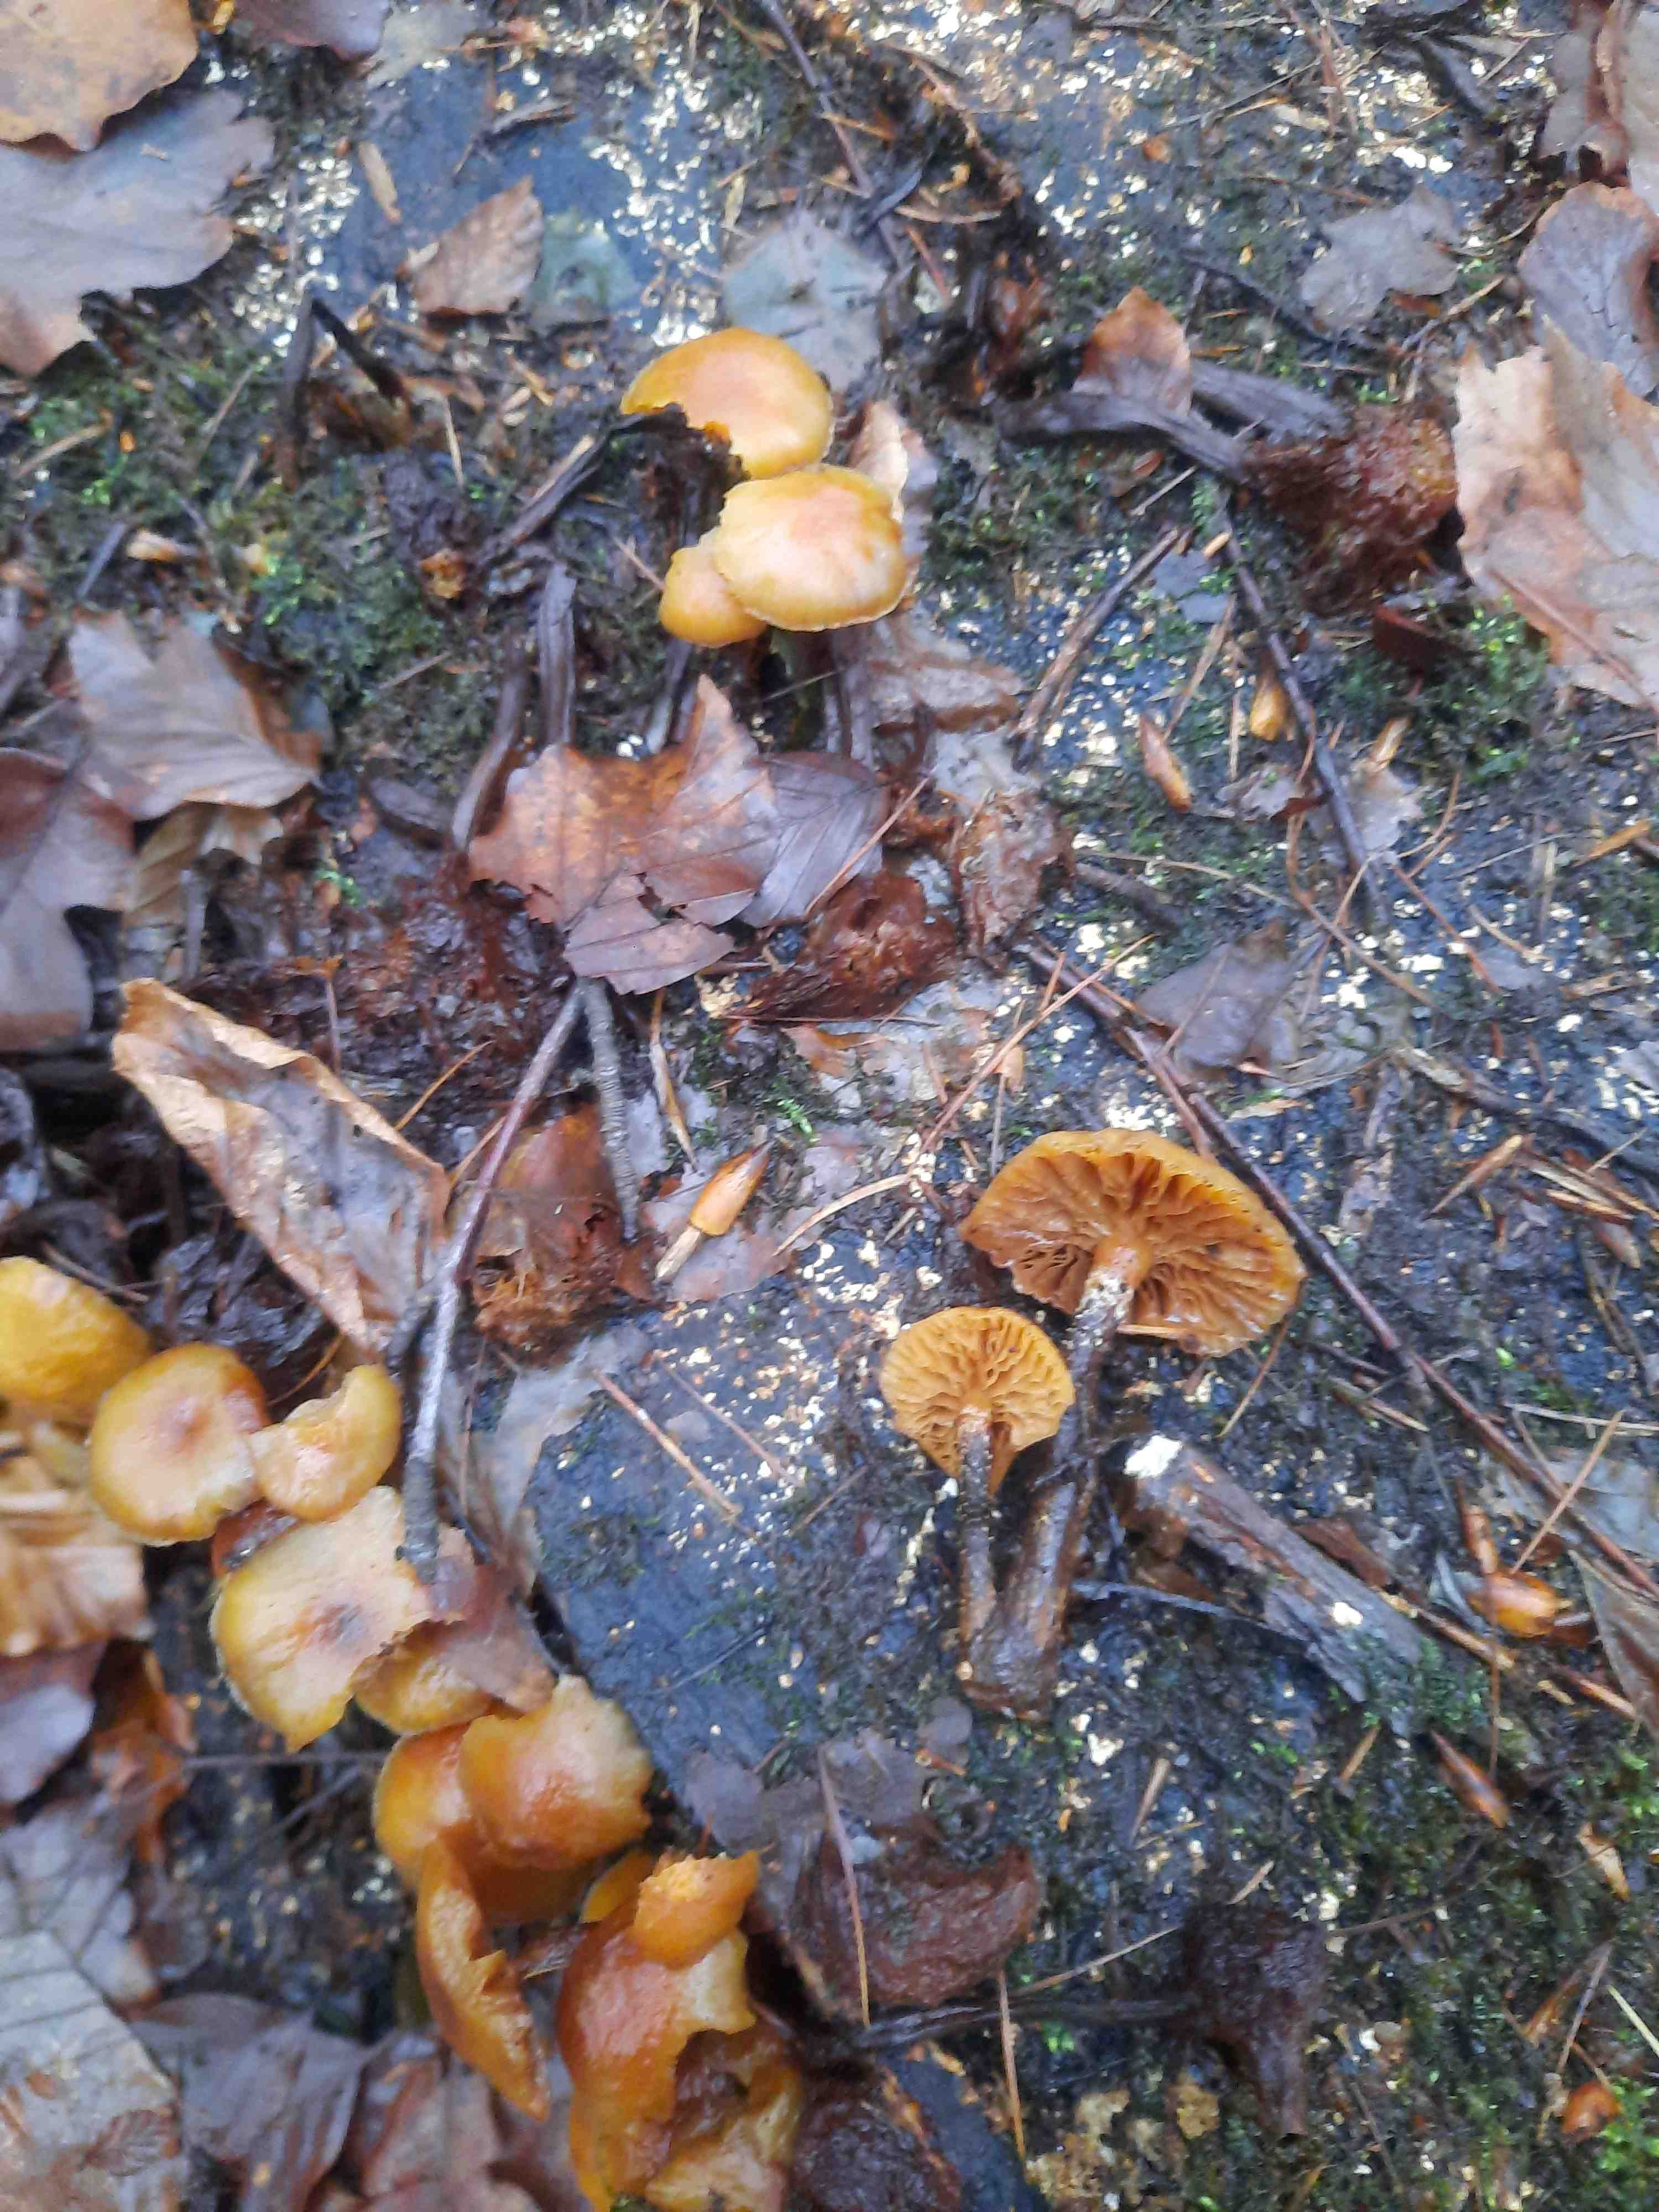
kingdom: Fungi
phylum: Basidiomycota
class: Agaricomycetes
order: Agaricales
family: Strophariaceae
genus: Kuehneromyces
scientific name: Kuehneromyces mutabilis
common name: foranderlig skælhat
